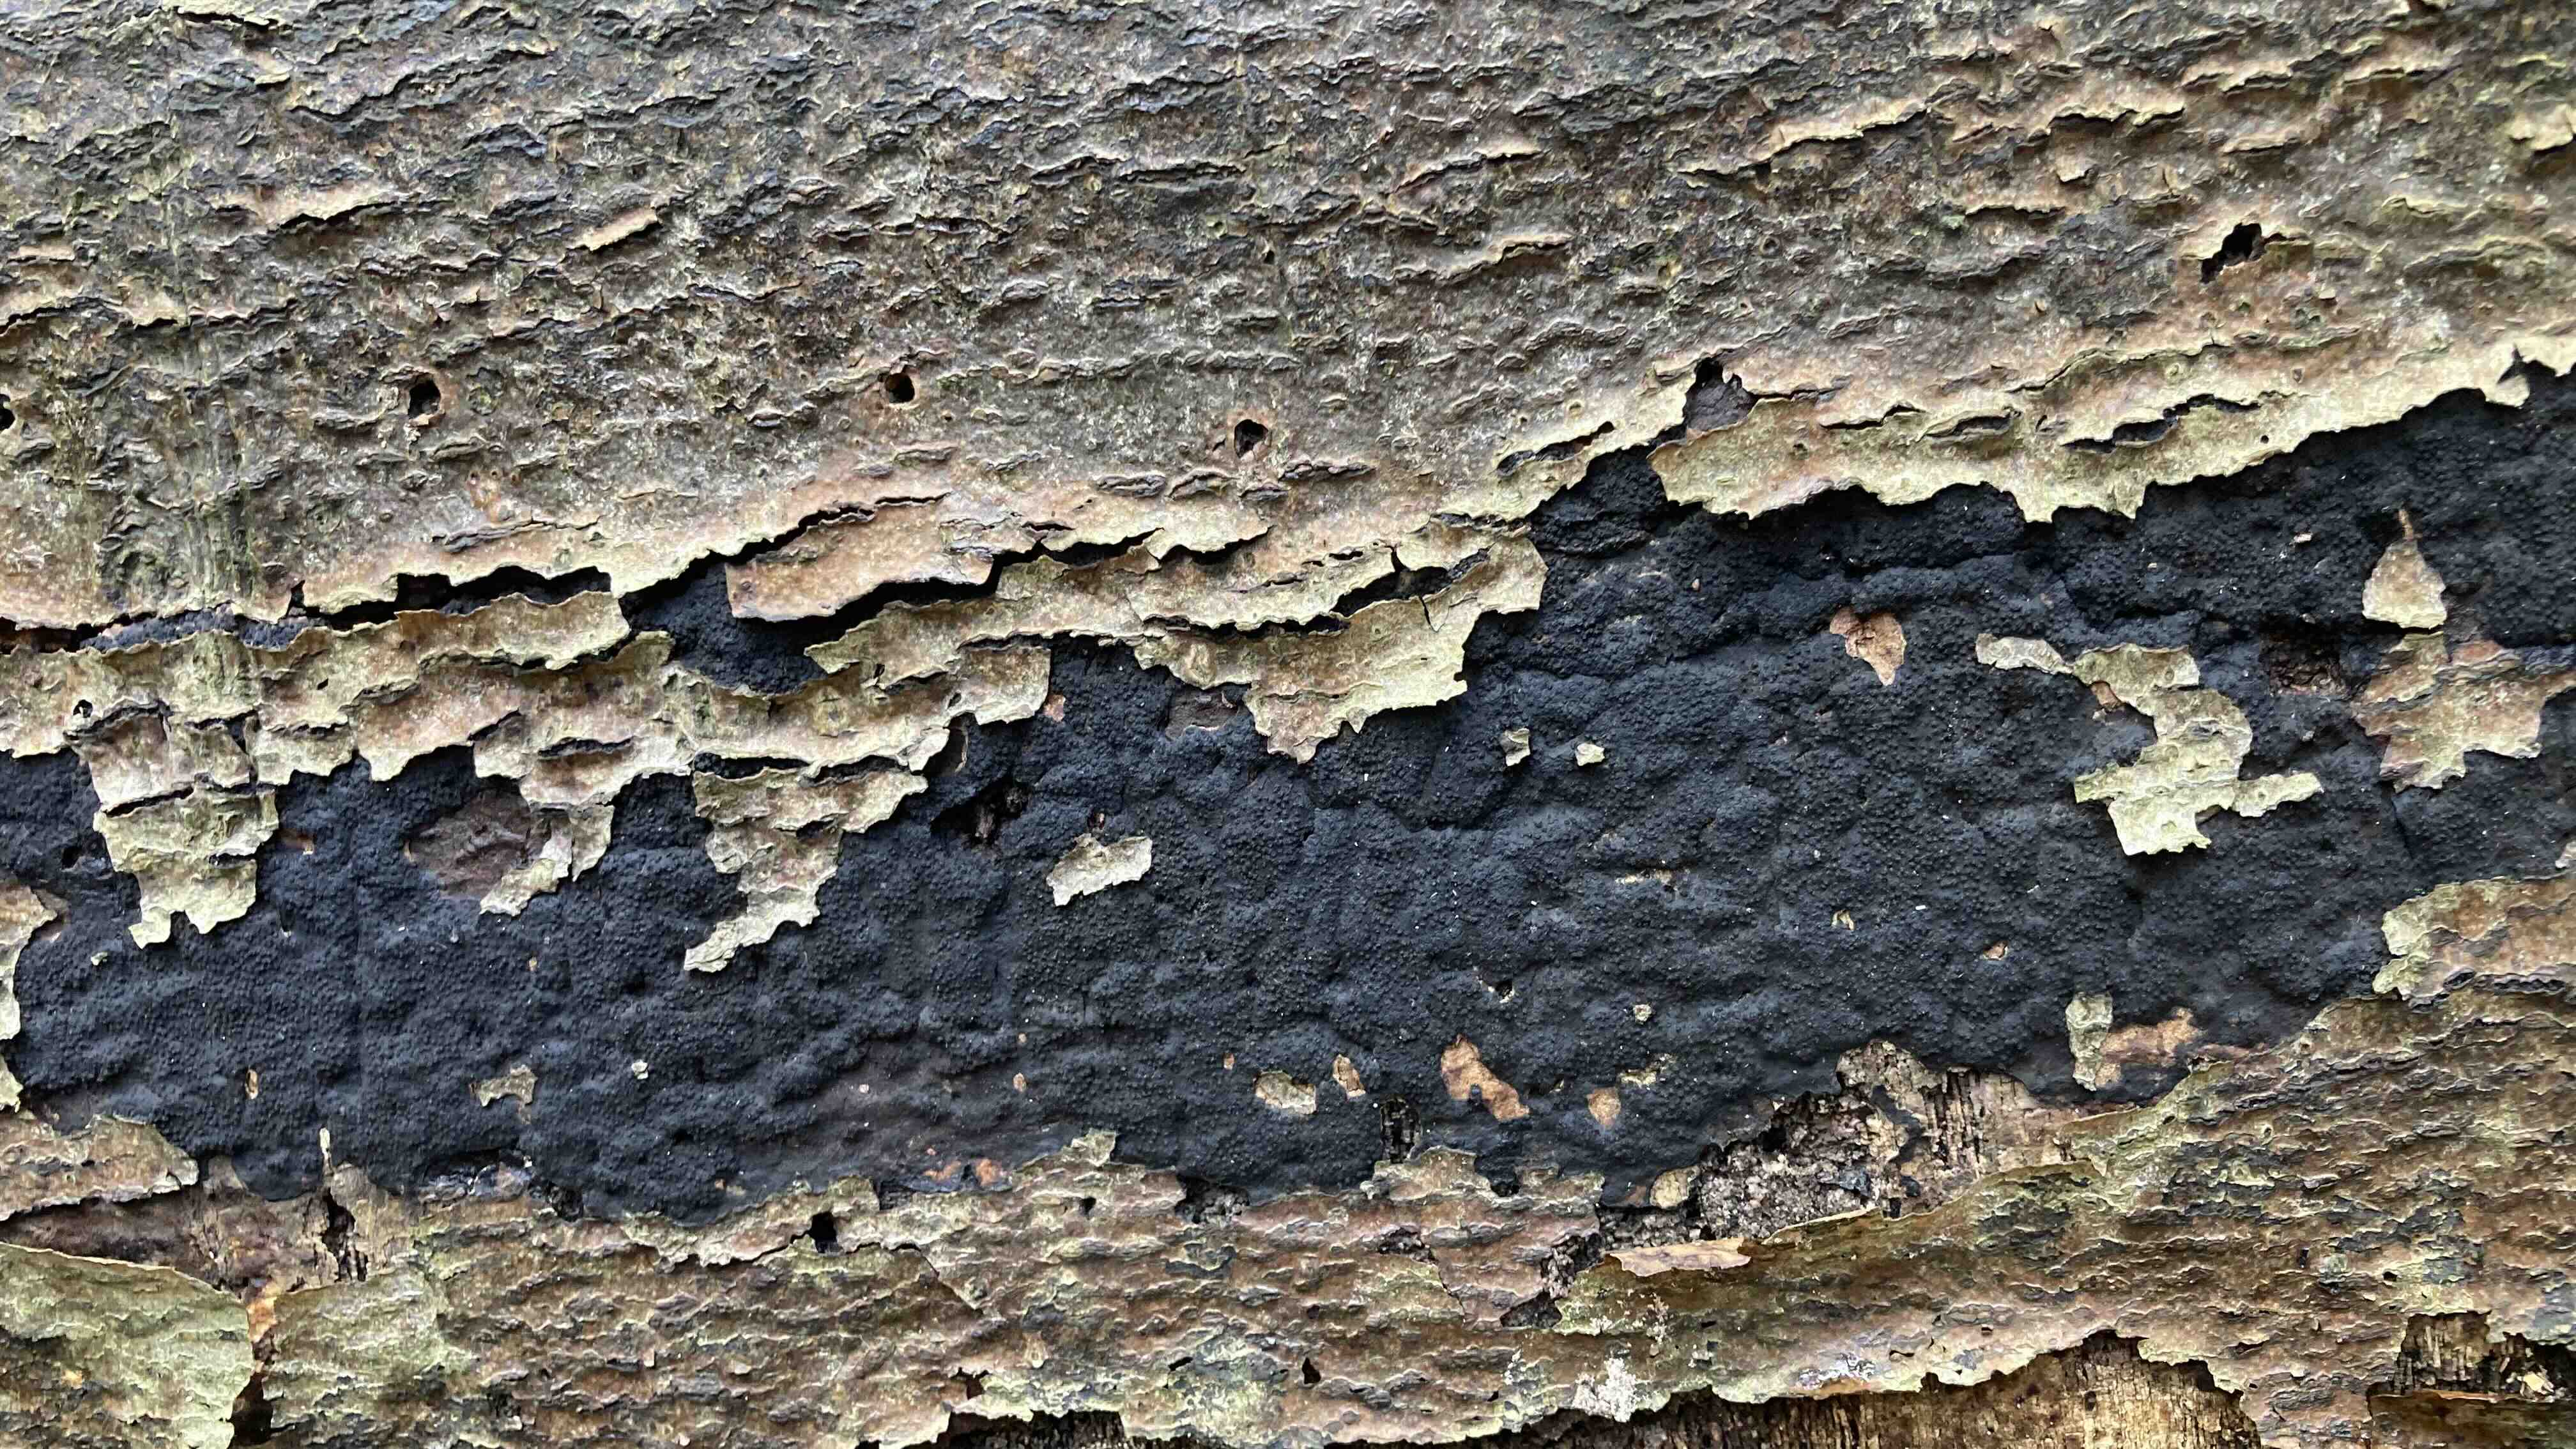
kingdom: Fungi
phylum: Ascomycota
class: Sordariomycetes
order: Xylariales
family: Diatrypaceae
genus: Eutypa
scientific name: Eutypa spinosa
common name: grov kulskorpe
